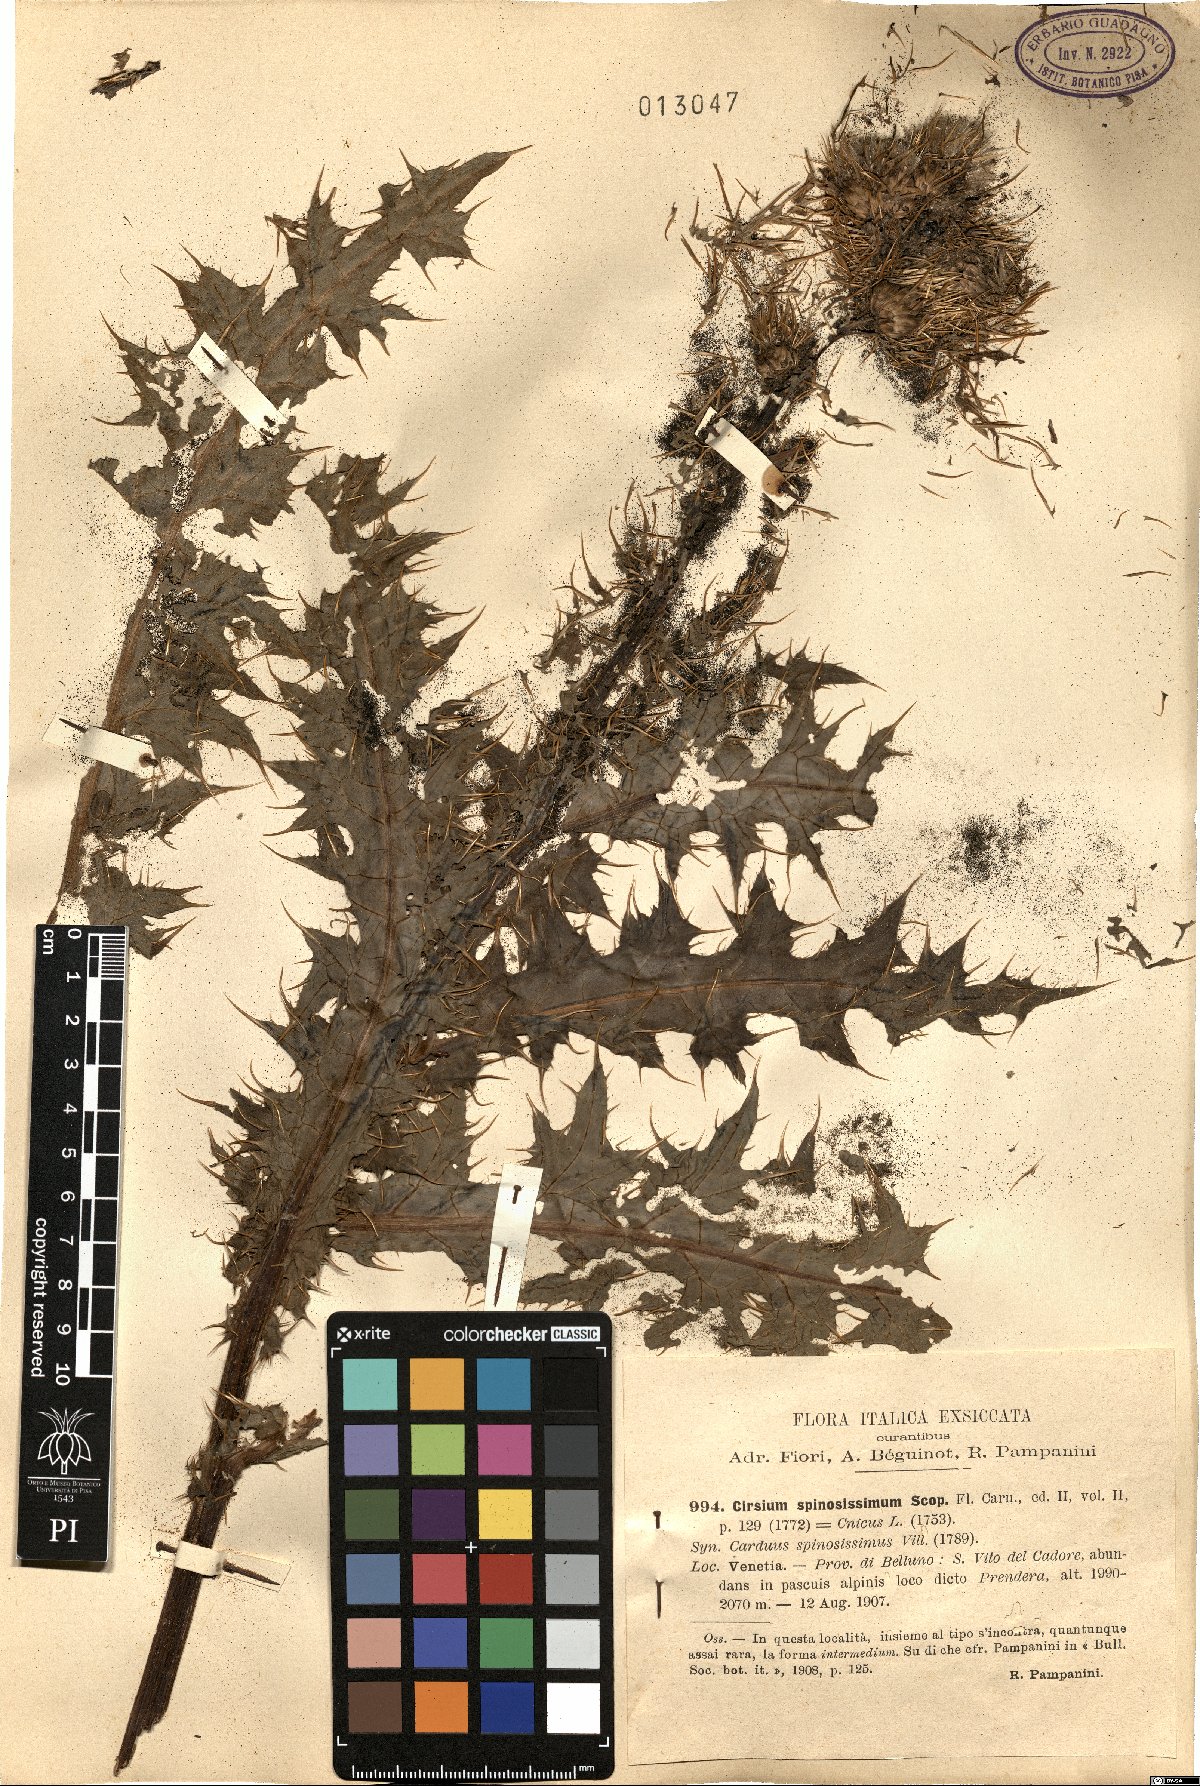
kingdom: Plantae
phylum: Tracheophyta
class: Magnoliopsida
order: Asterales
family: Asteraceae
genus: Cirsium
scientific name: Cirsium spinosissimum
